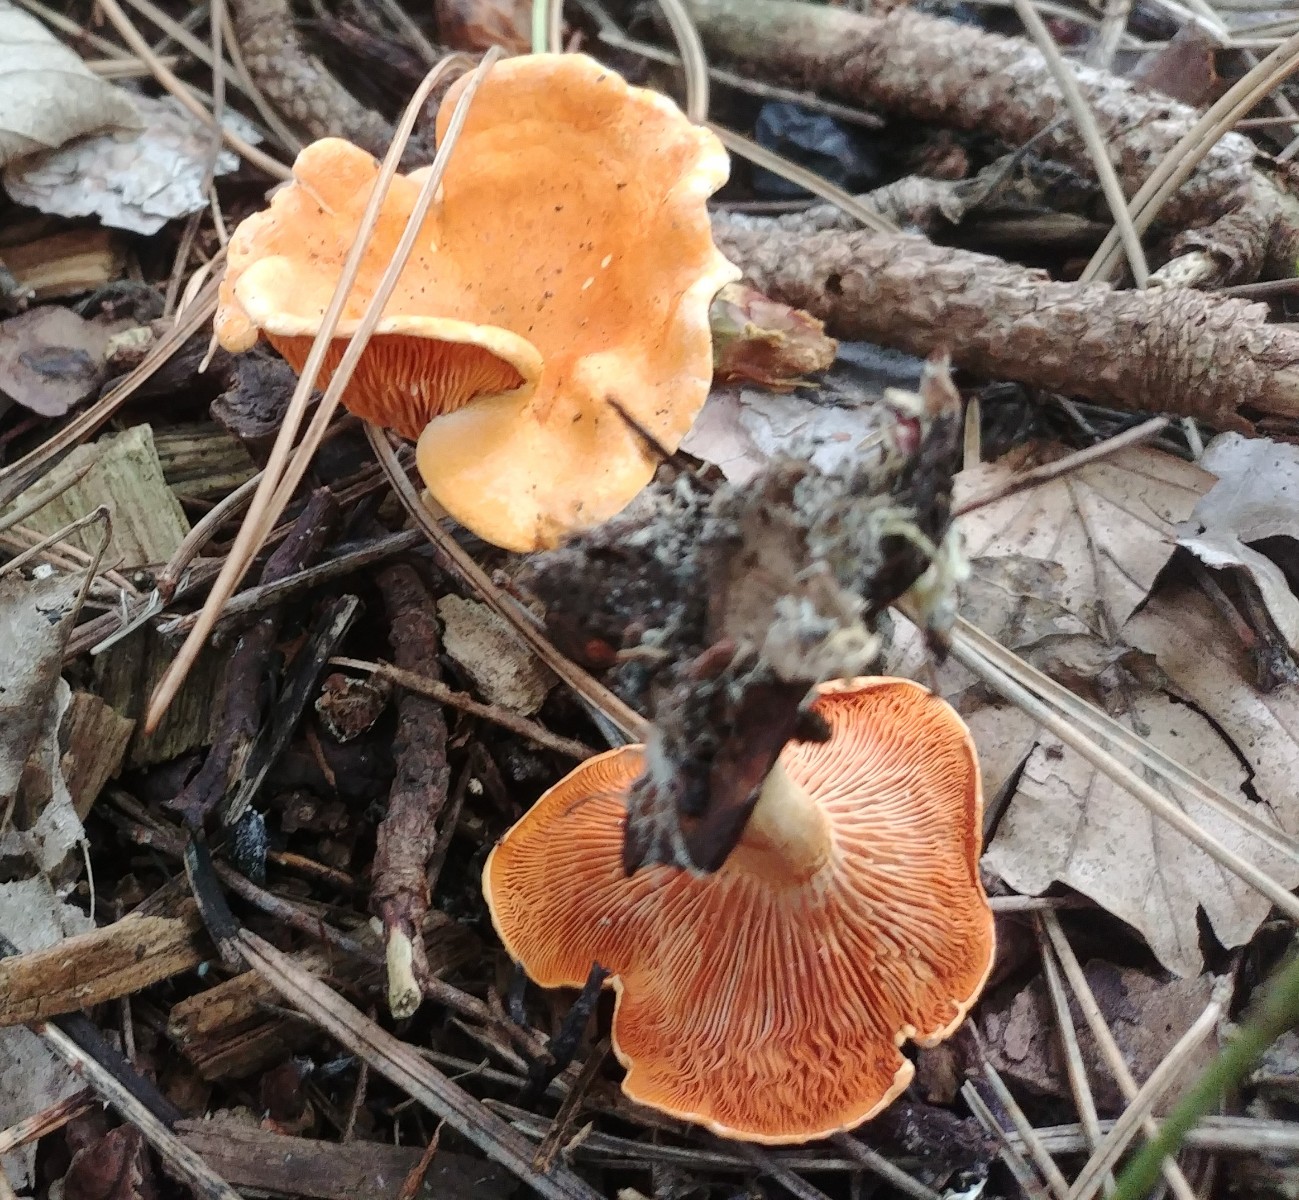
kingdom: Fungi
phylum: Basidiomycota
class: Agaricomycetes
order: Boletales
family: Hygrophoropsidaceae
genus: Hygrophoropsis
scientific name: Hygrophoropsis aurantiaca
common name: almindelig orangekantarel
